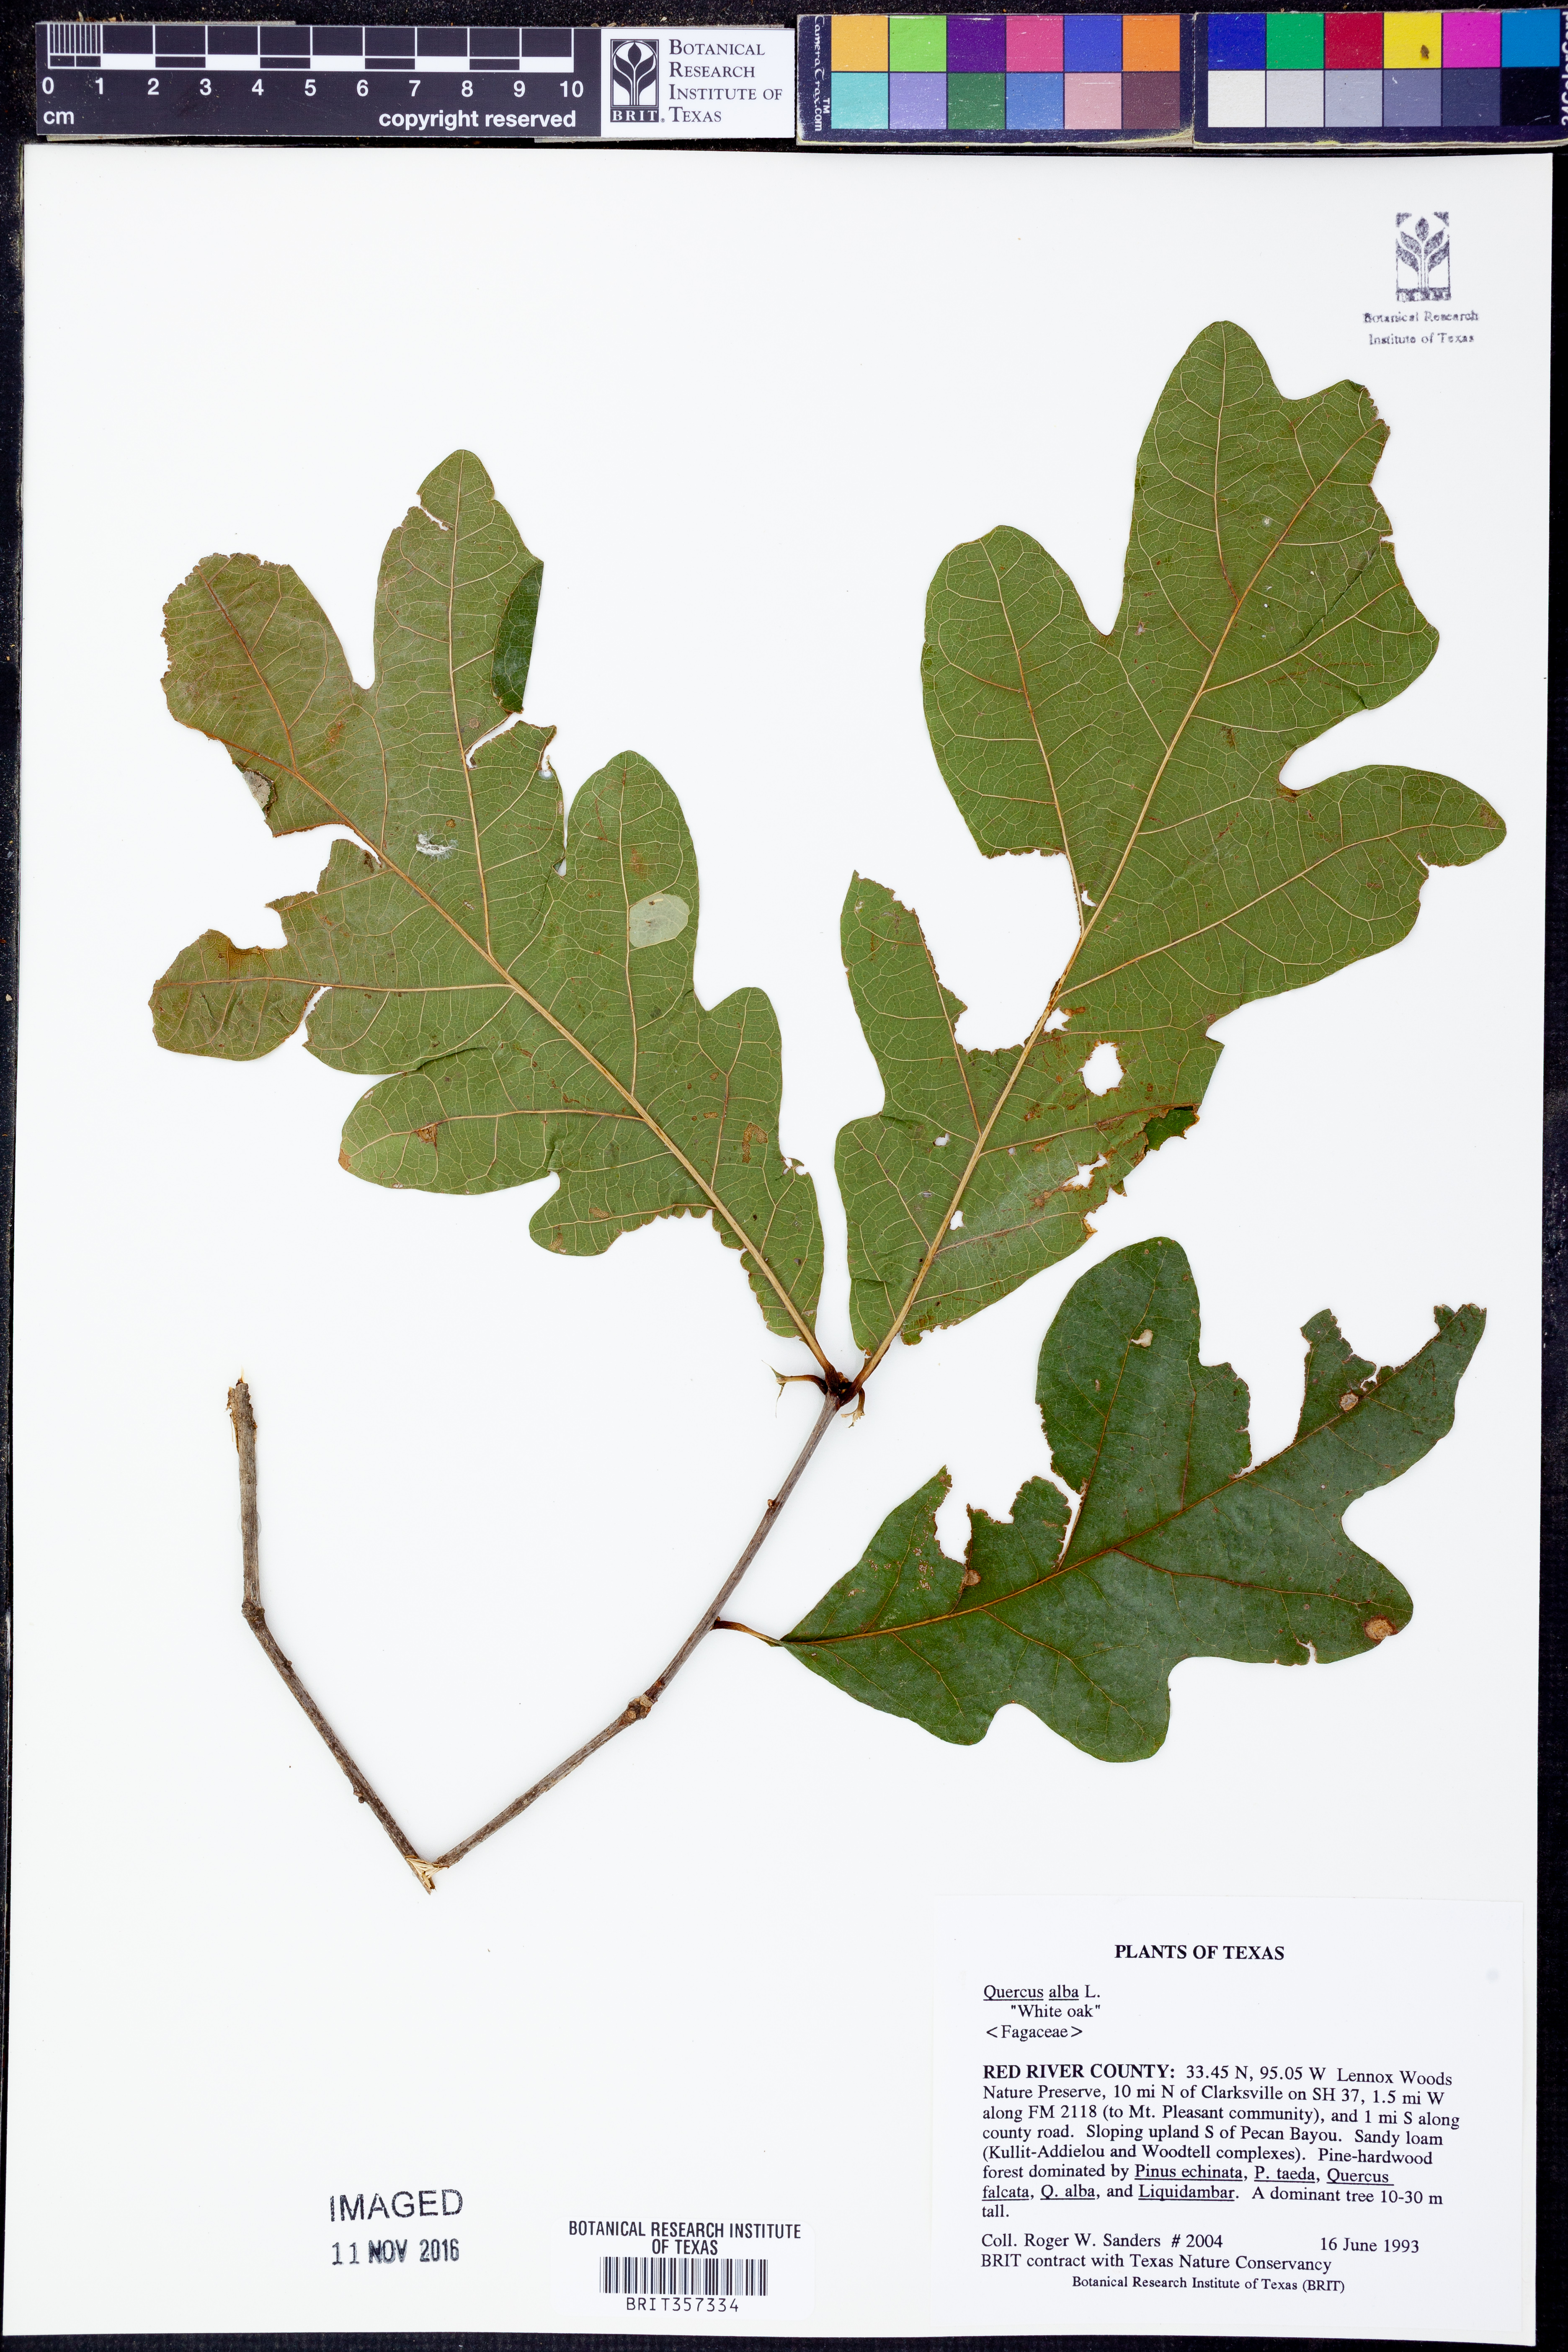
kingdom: Plantae
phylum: Tracheophyta
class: Magnoliopsida
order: Fagales
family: Fagaceae
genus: Quercus
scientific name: Quercus alba
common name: White oak
